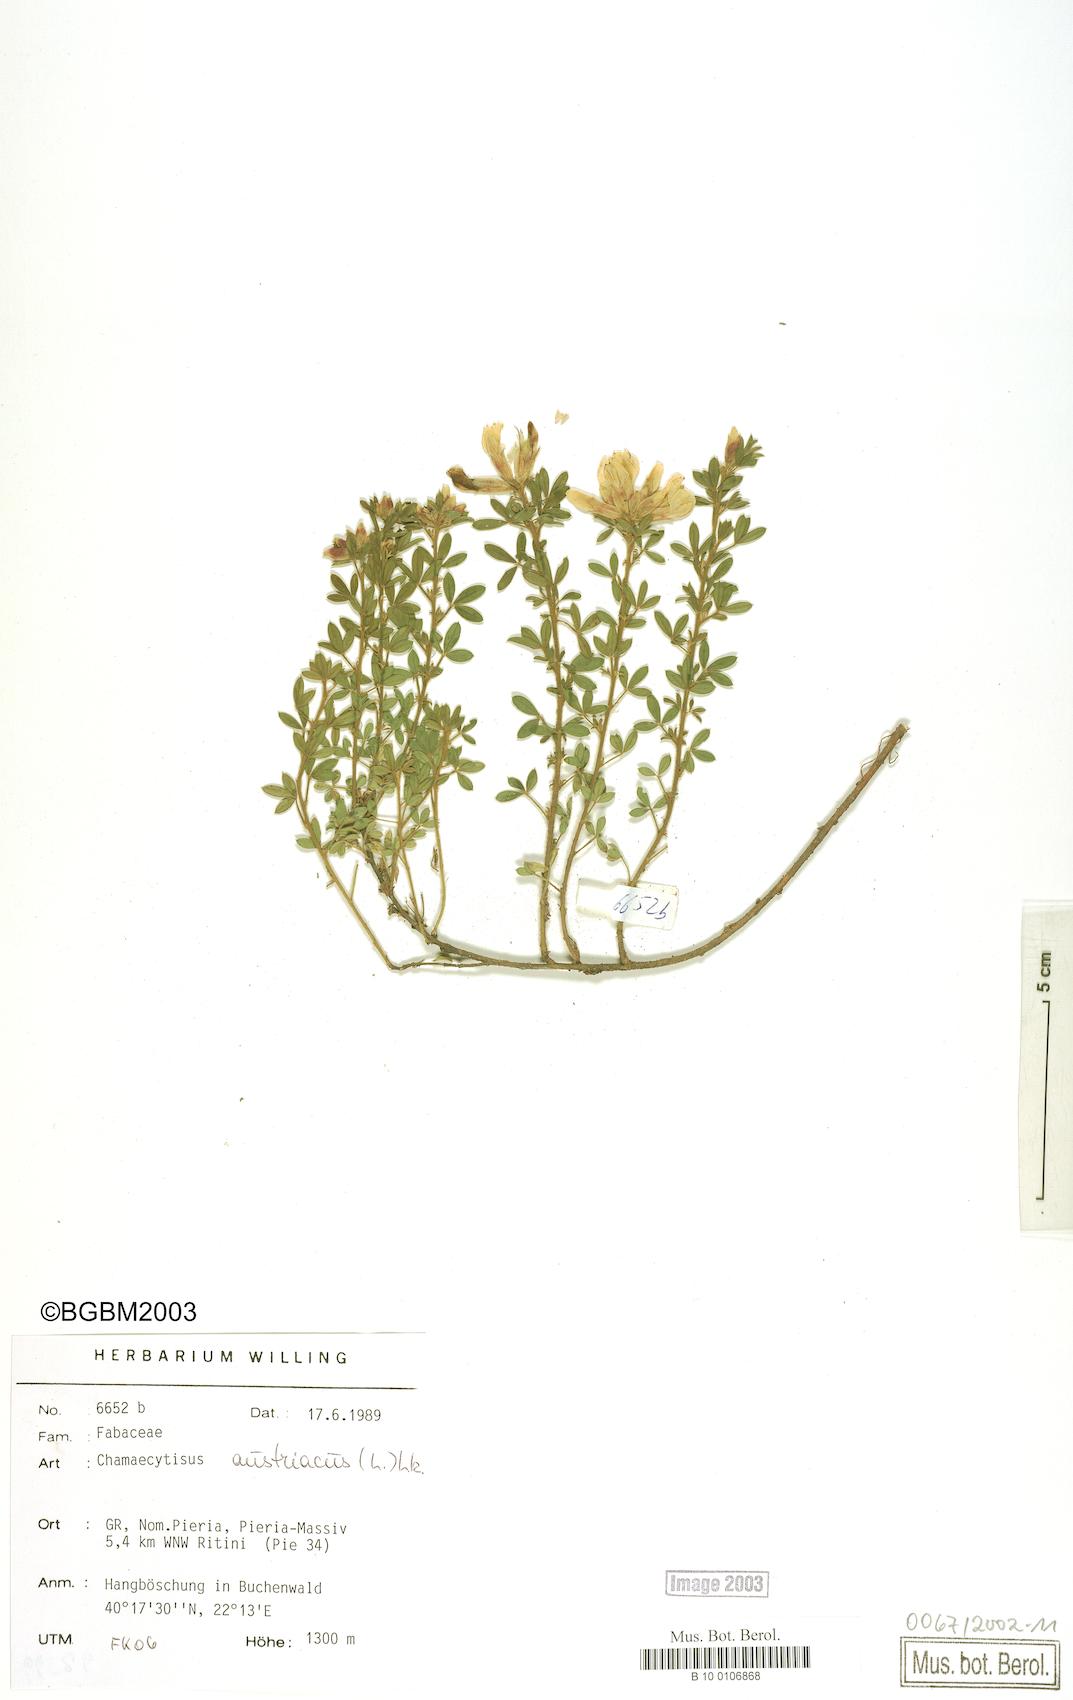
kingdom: Plantae
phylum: Tracheophyta
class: Magnoliopsida
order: Fabales
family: Fabaceae
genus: Chamaecytisus
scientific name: Chamaecytisus austriacus
